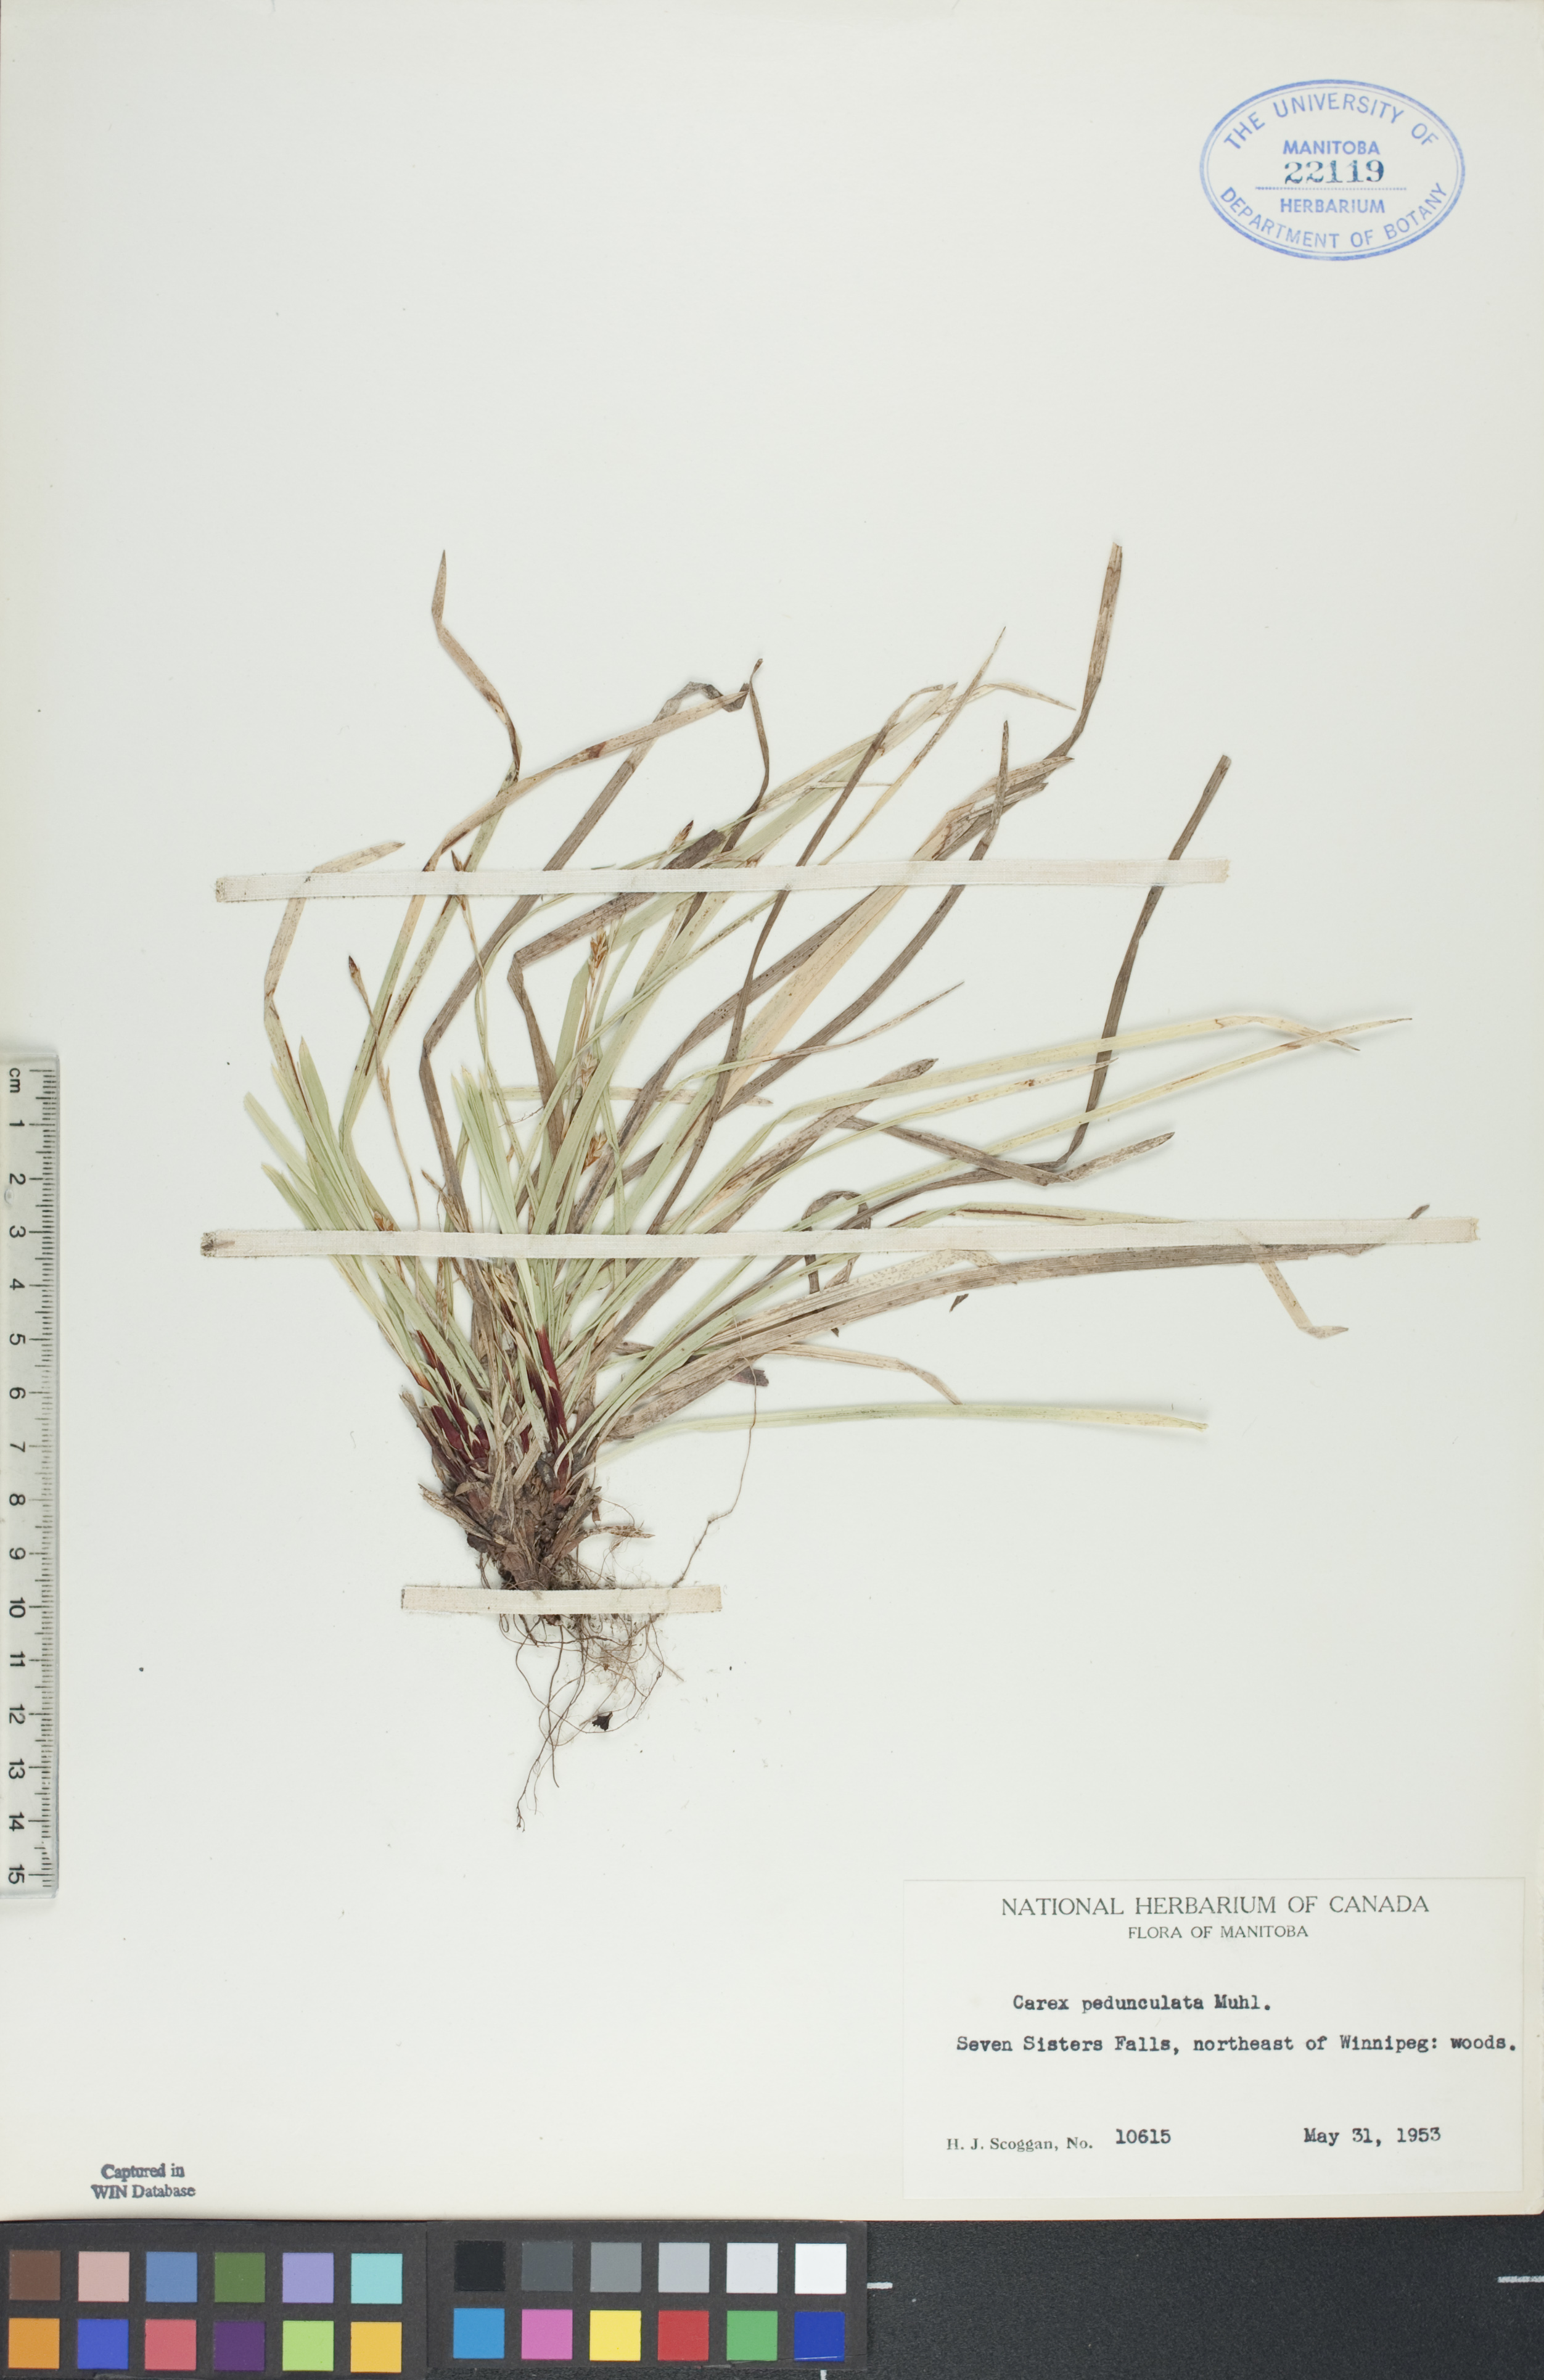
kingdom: Plantae
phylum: Tracheophyta
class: Liliopsida
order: Poales
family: Cyperaceae
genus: Carex
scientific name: Carex pedunculata
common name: Pedunculate sedge
